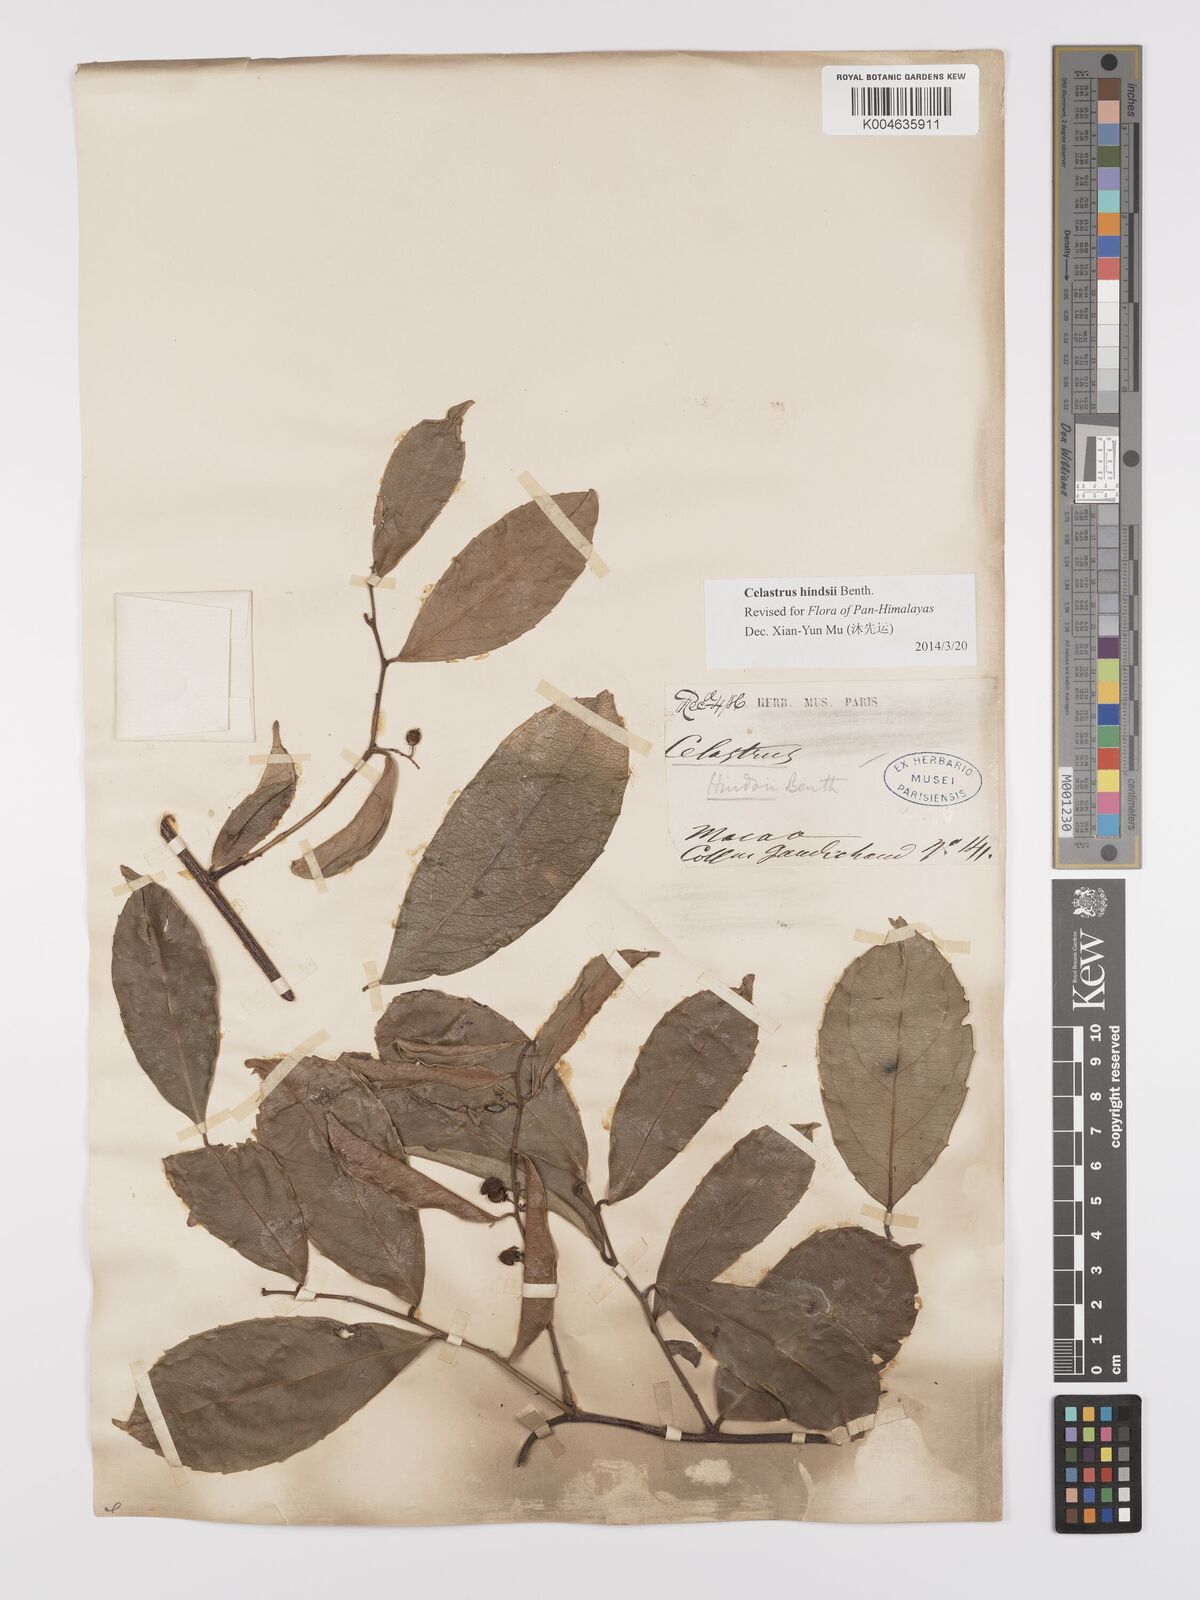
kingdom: Plantae
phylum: Tracheophyta
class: Magnoliopsida
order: Celastrales
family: Celastraceae
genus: Celastrus
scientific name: Celastrus hindsii
